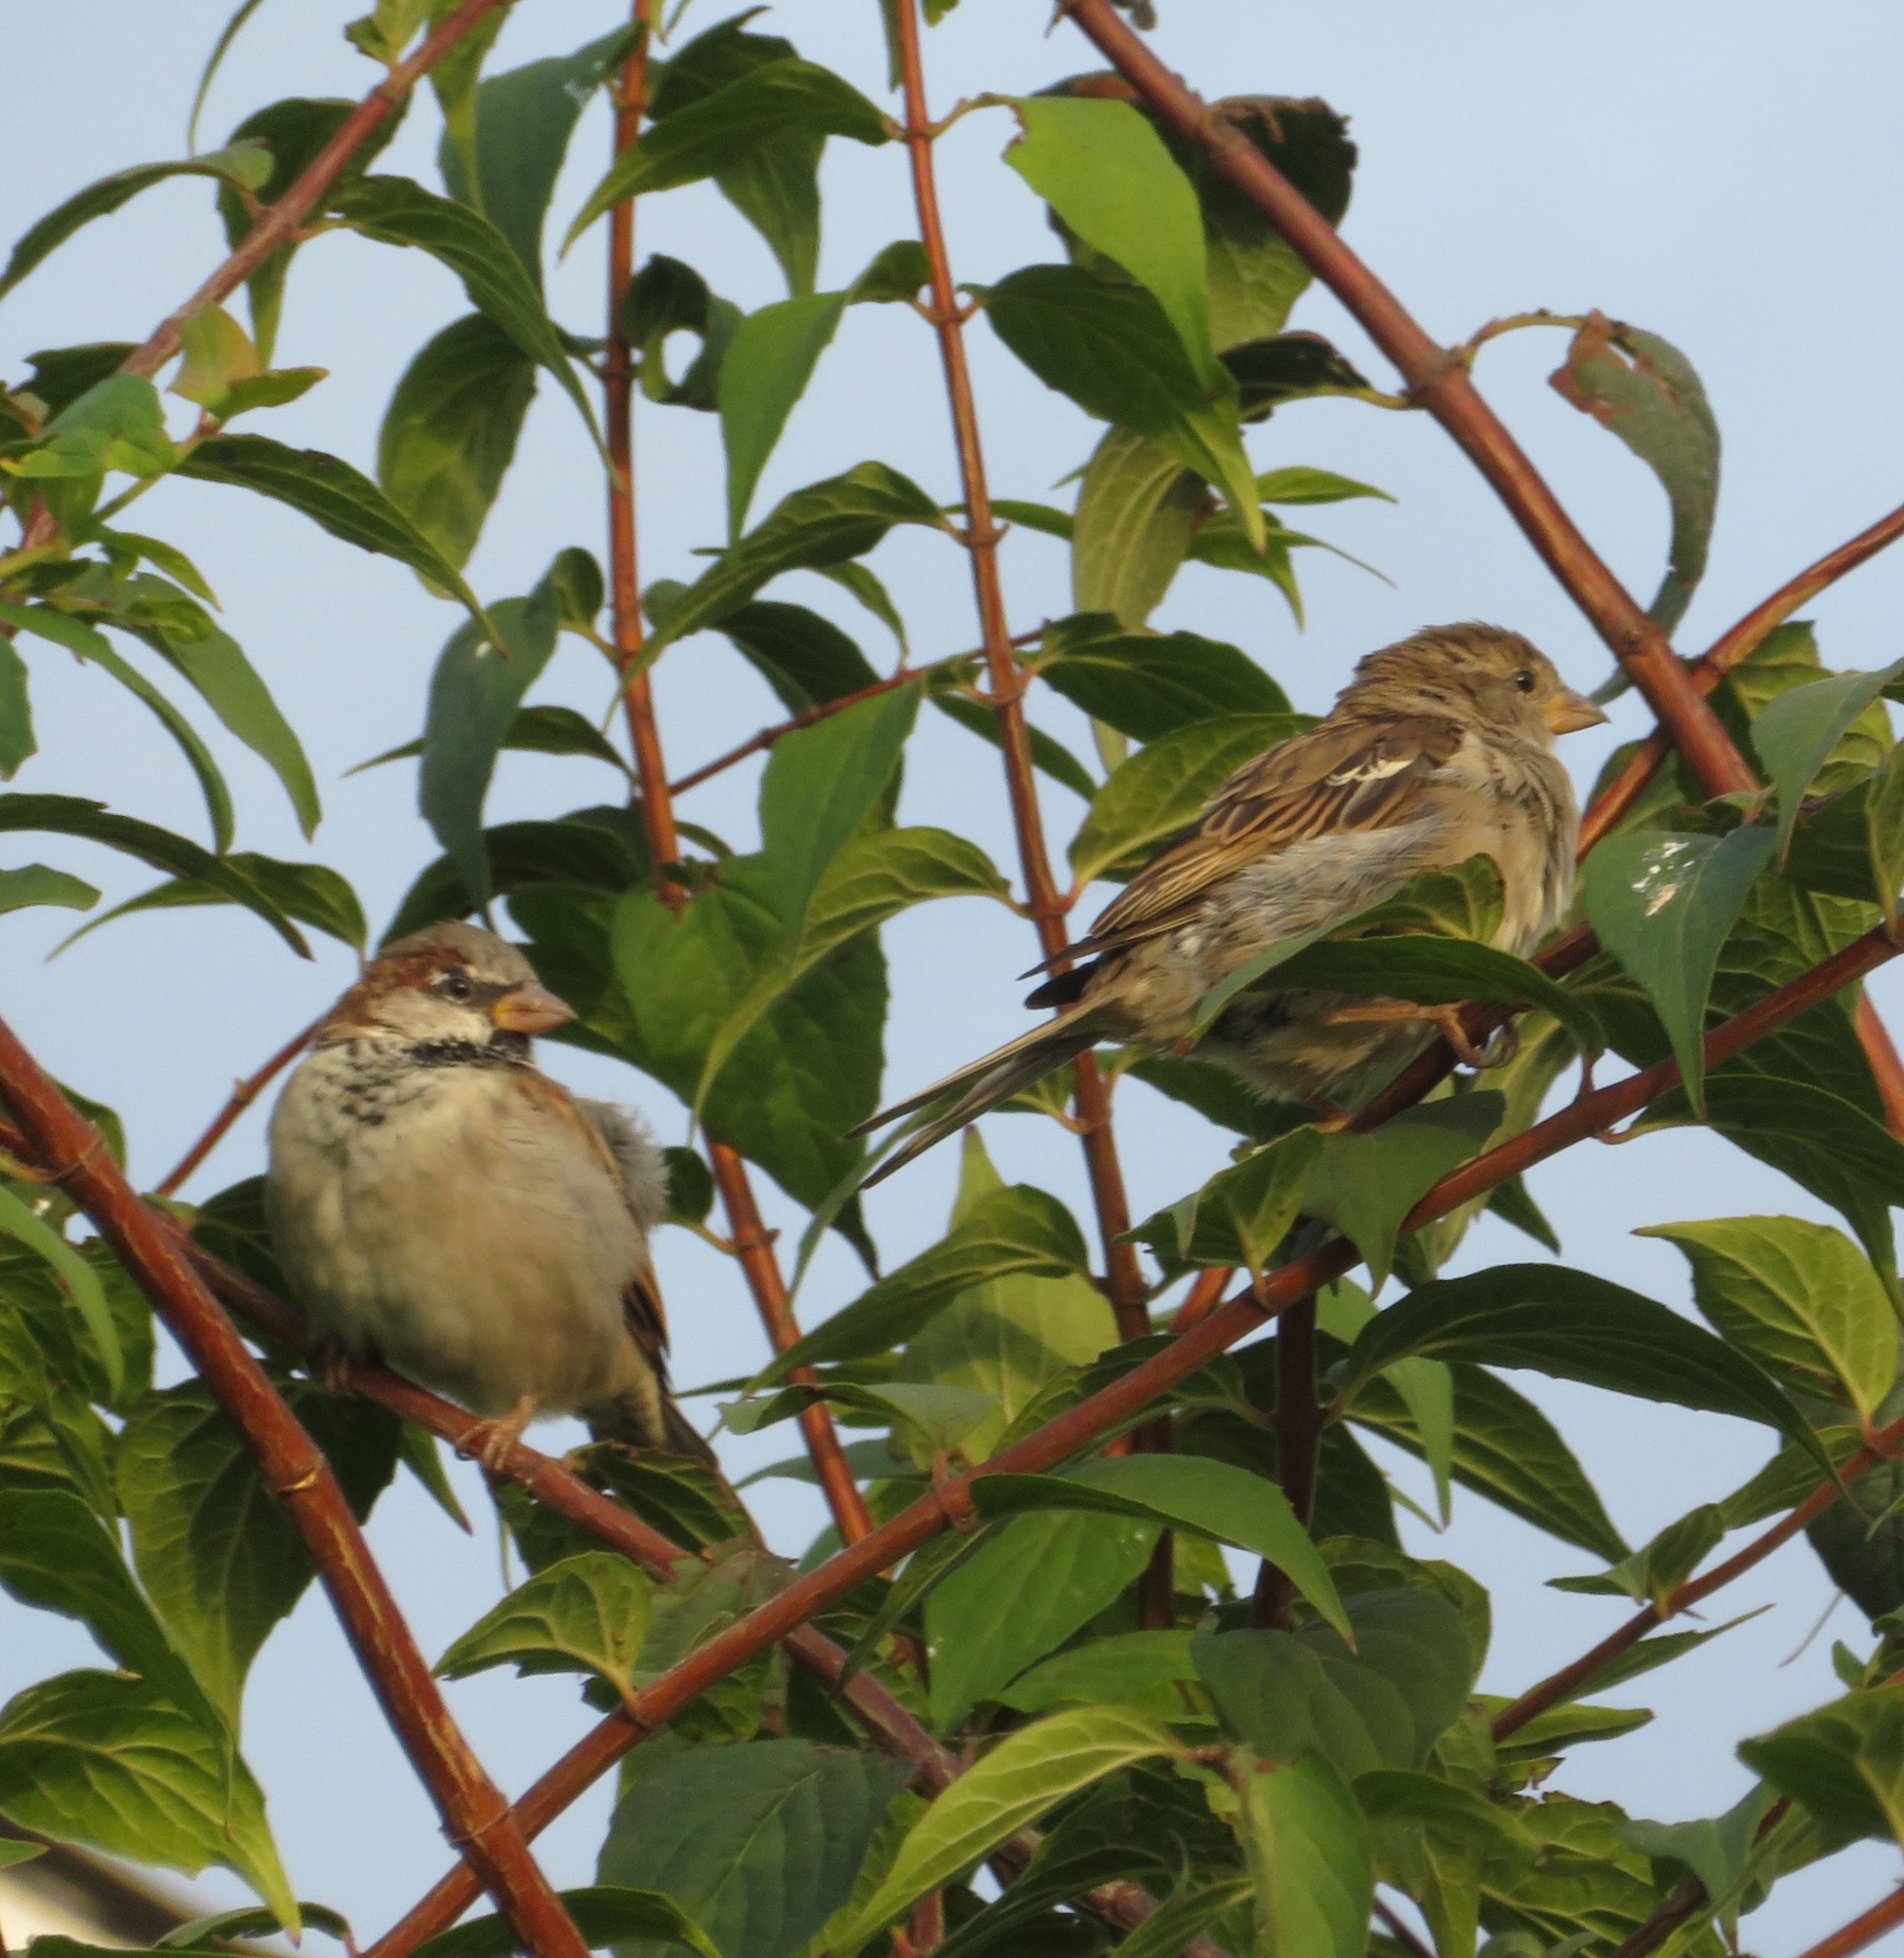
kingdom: Animalia
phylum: Chordata
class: Aves
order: Passeriformes
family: Passeridae
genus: Passer
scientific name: Passer domesticus
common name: Gråspurv
